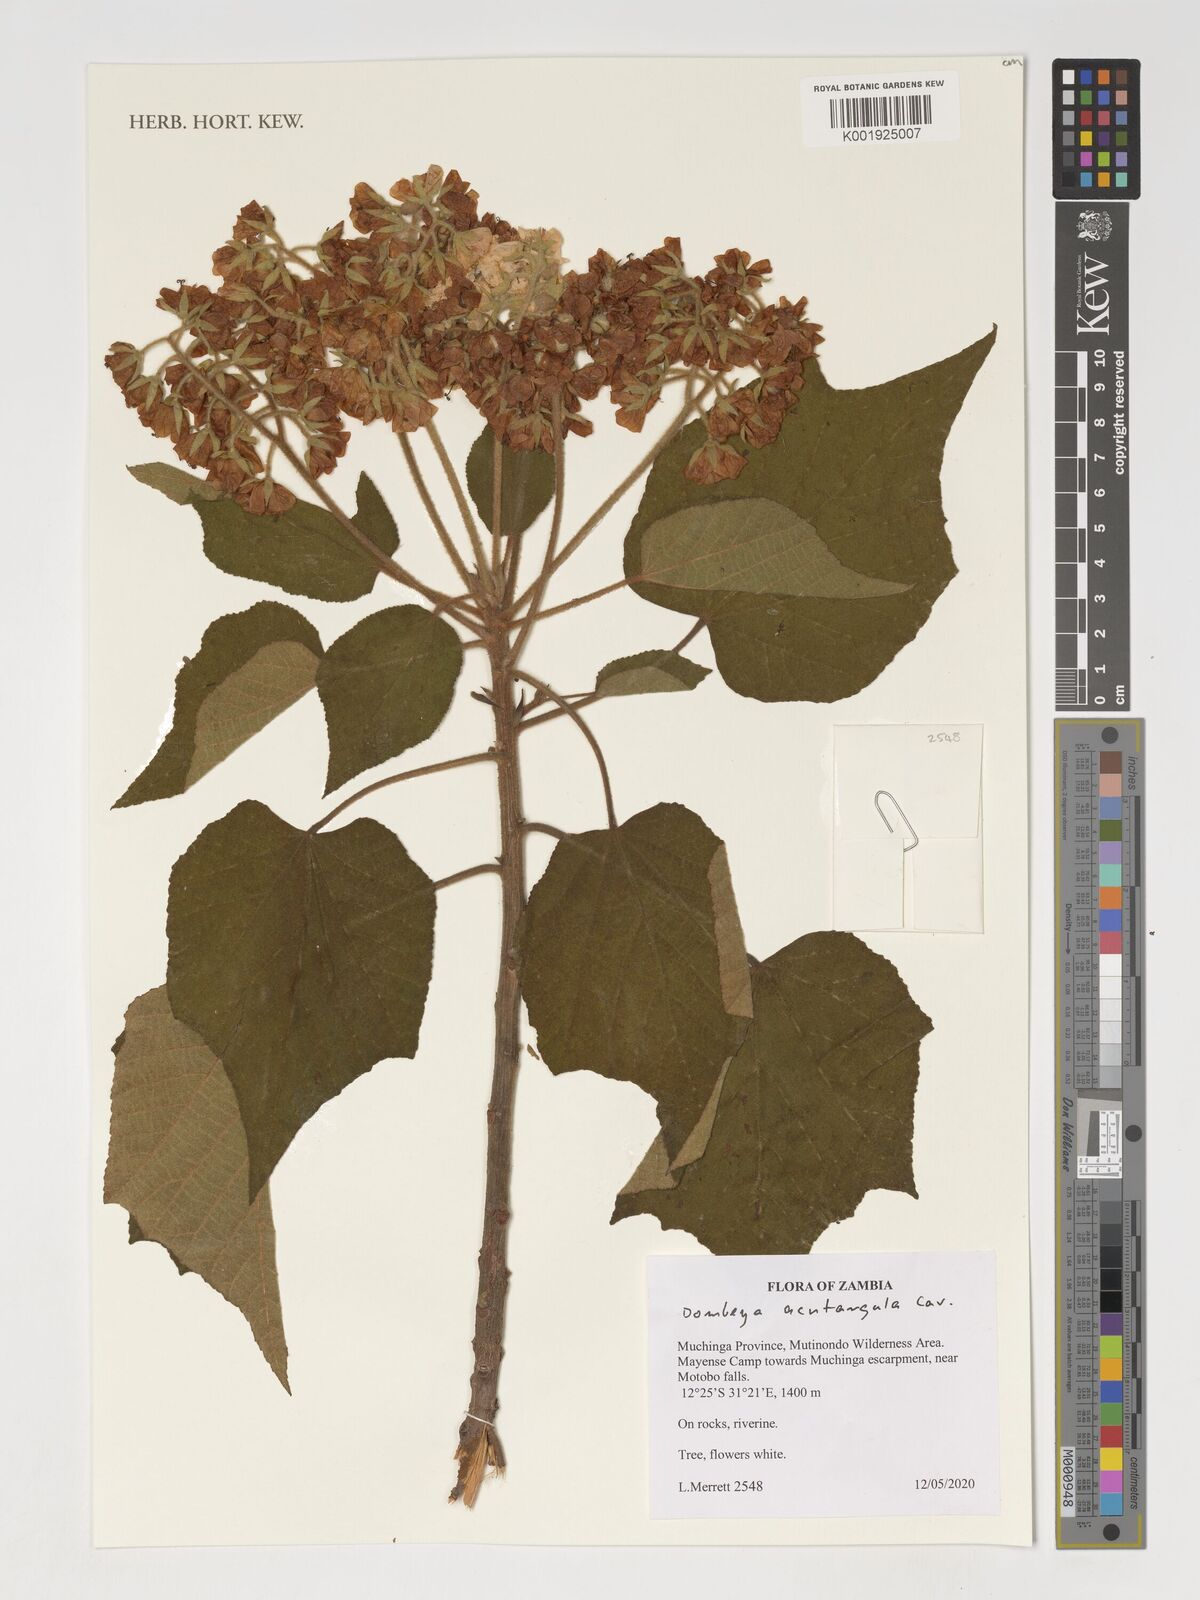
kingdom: Plantae
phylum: Tracheophyta
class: Magnoliopsida
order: Malvales
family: Malvaceae
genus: Dombeya
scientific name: Dombeya acutangula
